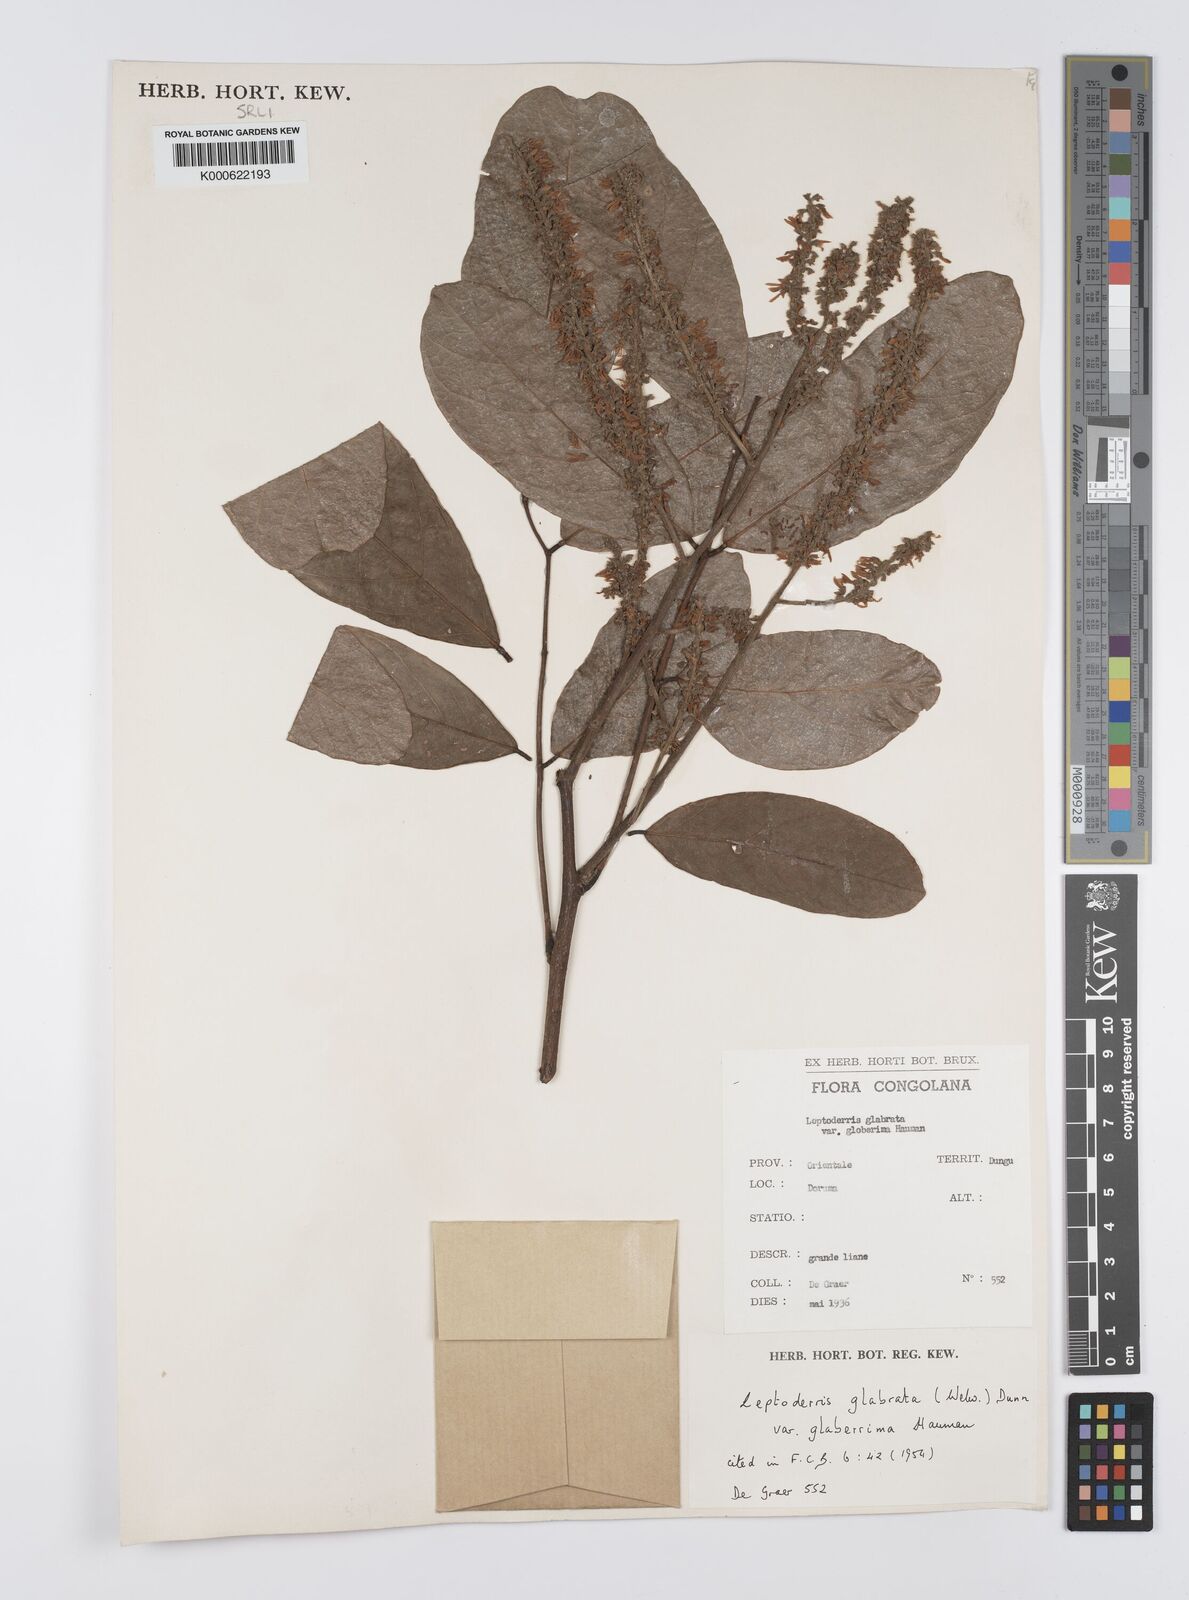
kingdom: Plantae
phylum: Tracheophyta
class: Magnoliopsida
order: Fabales
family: Fabaceae
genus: Leptoderris
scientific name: Leptoderris
